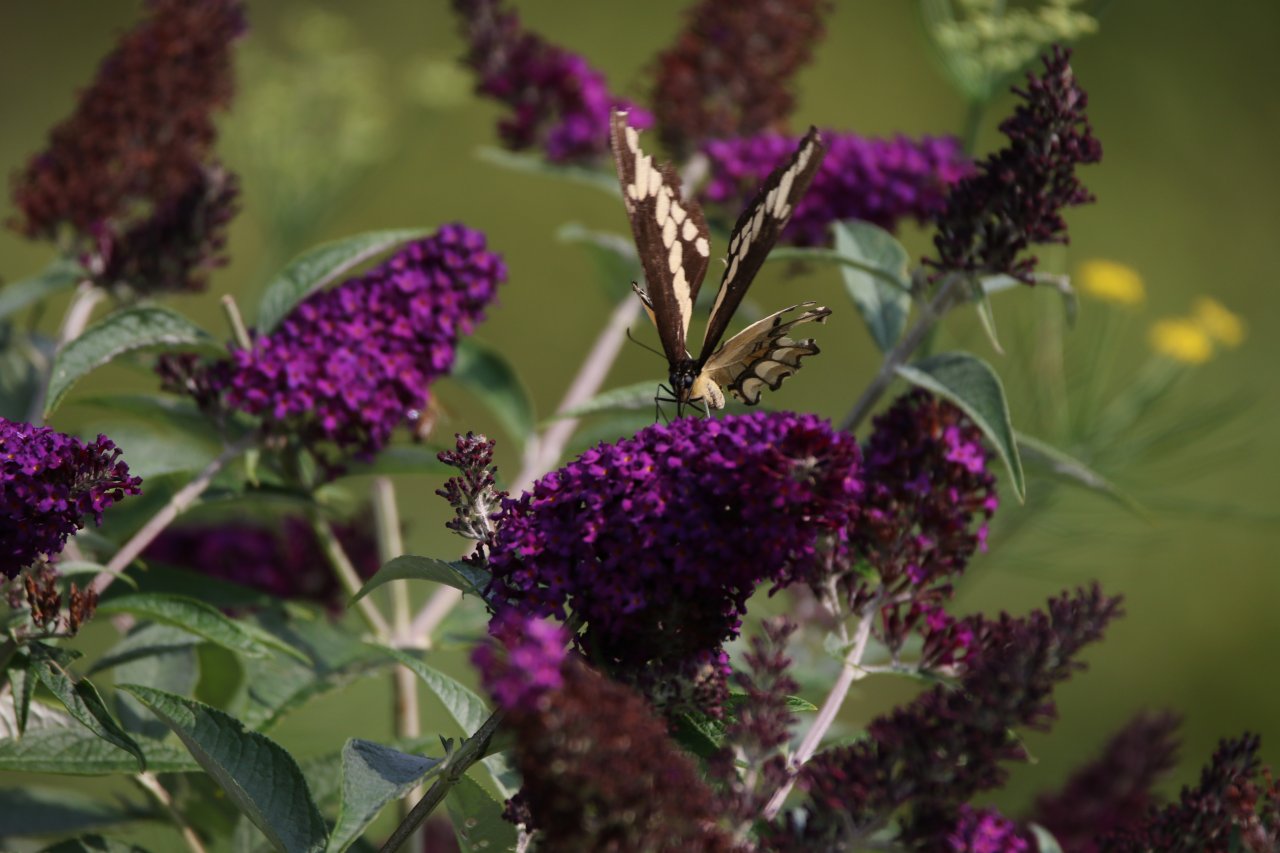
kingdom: Animalia
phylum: Arthropoda
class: Insecta
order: Lepidoptera
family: Papilionidae
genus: Papilio
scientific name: Papilio cresphontes
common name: Eastern Giant Swallowtail
